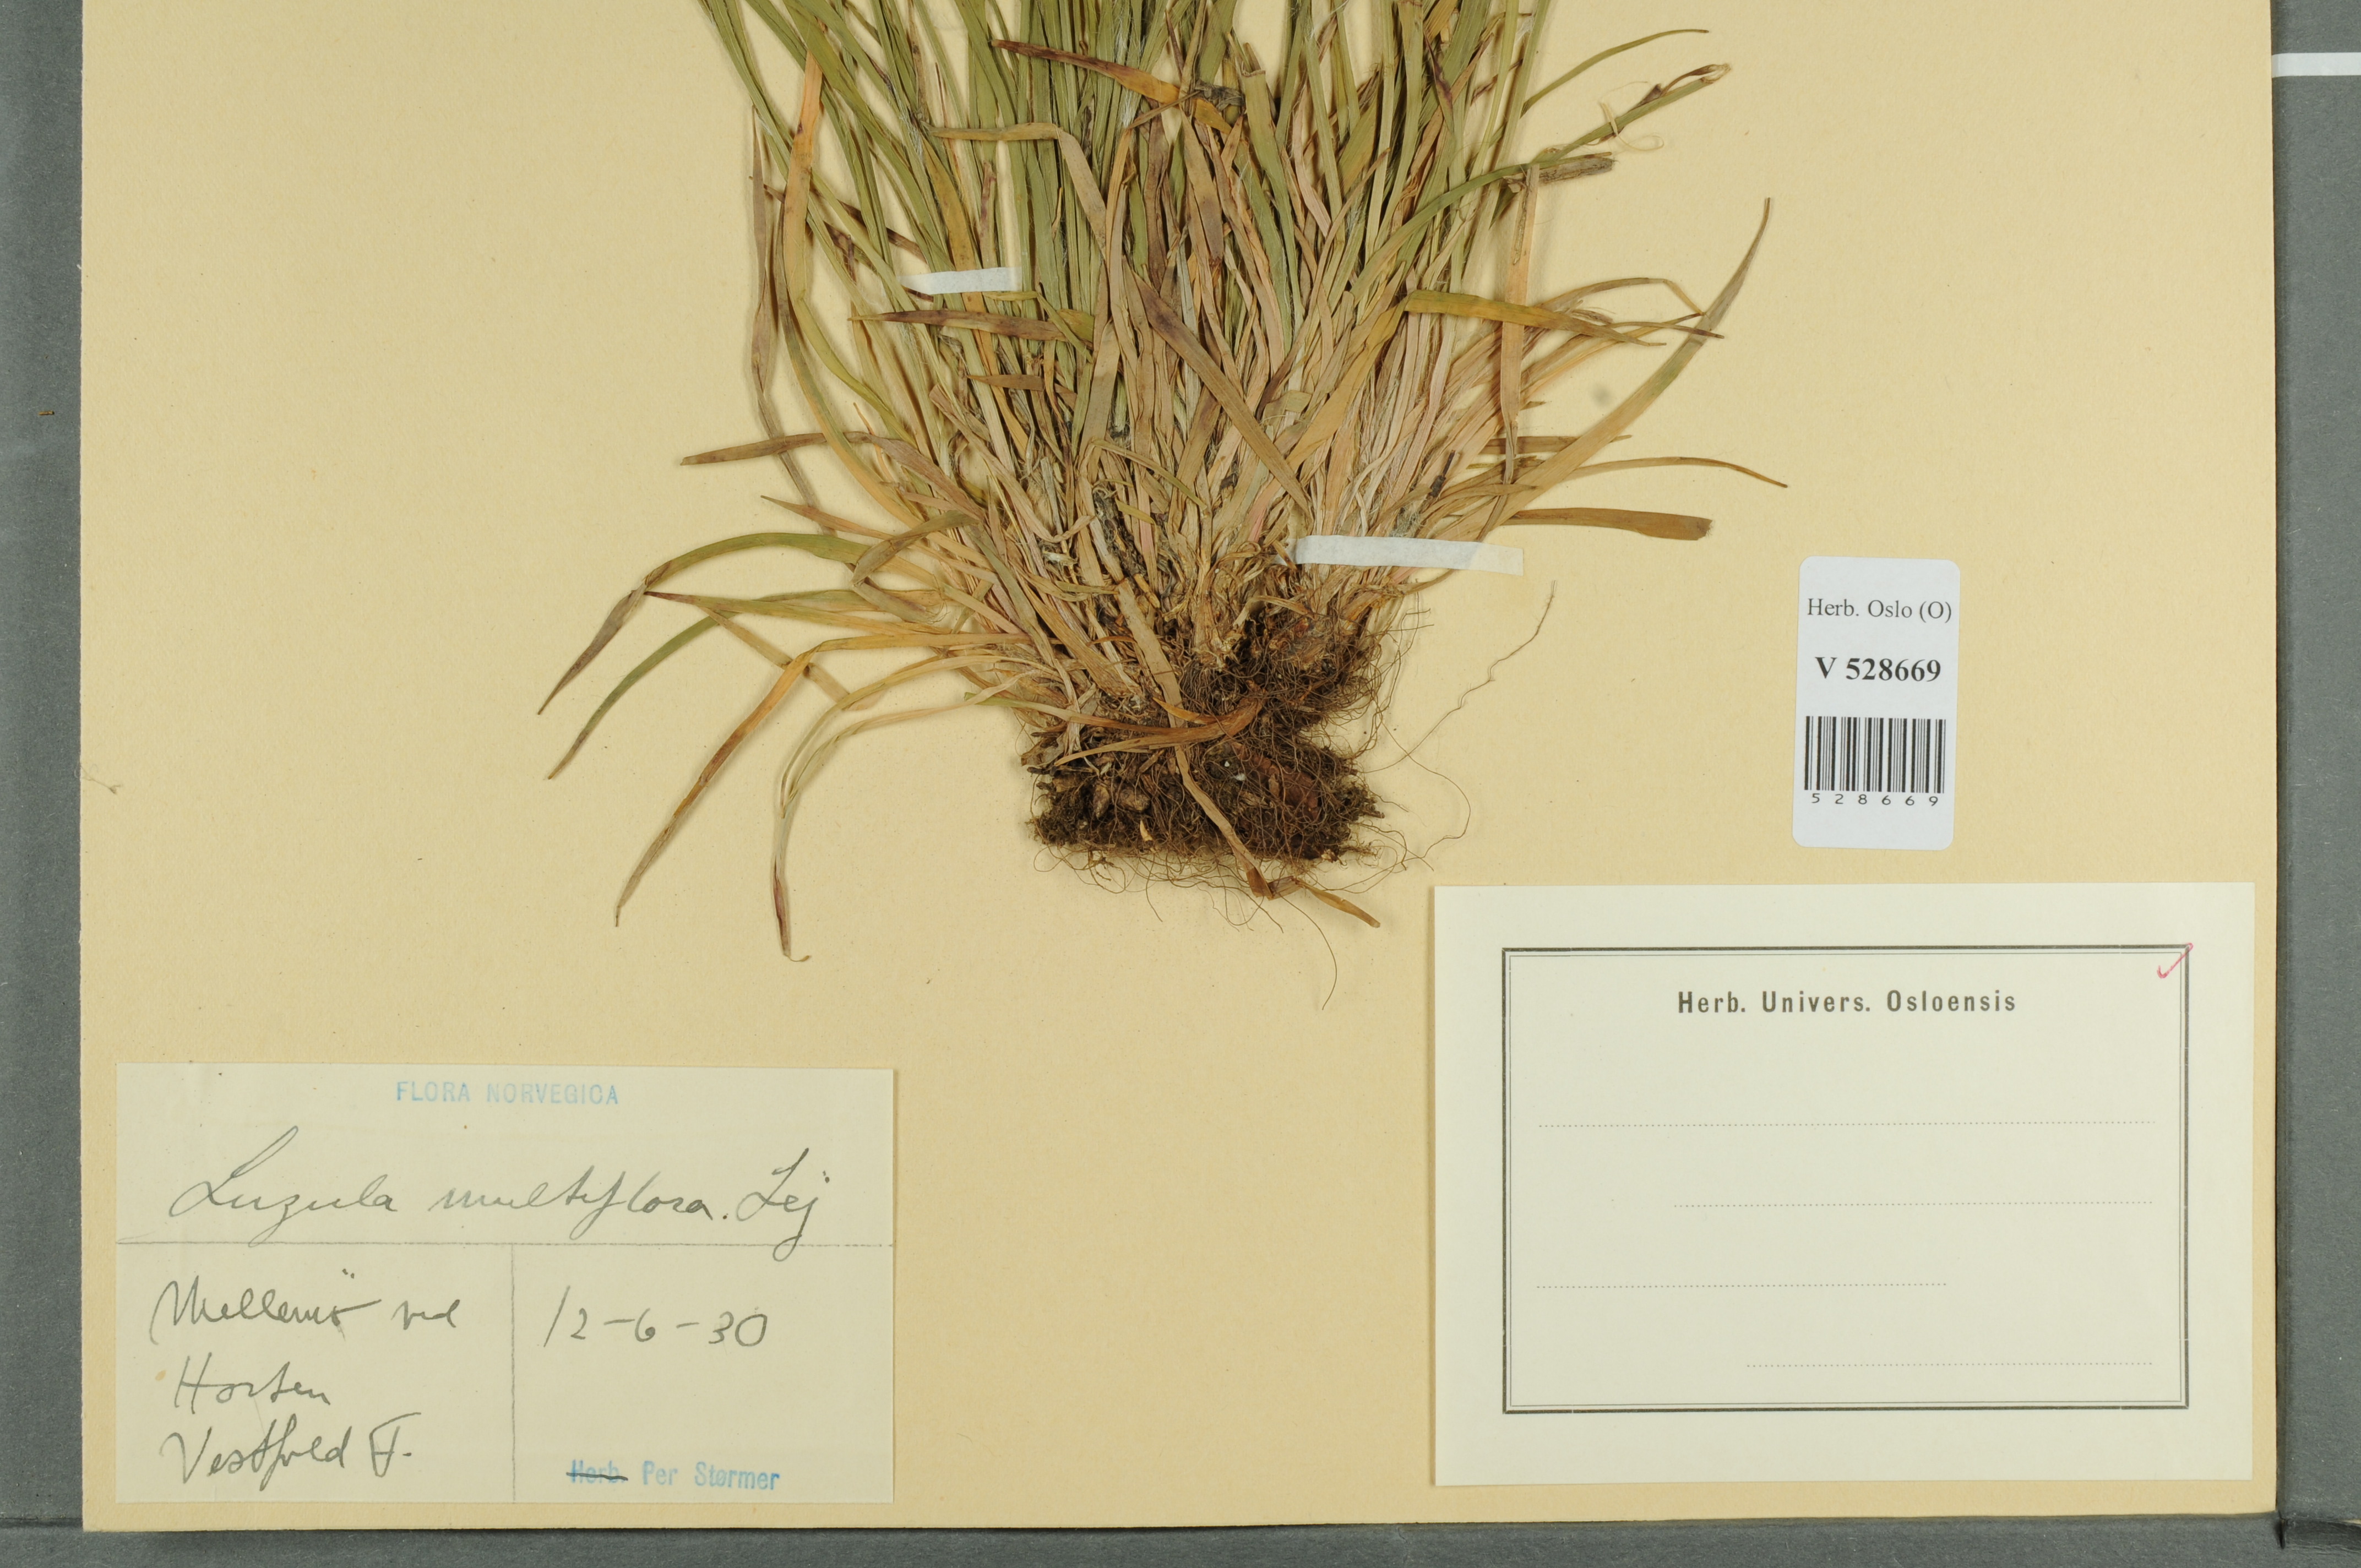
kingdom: Plantae
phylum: Tracheophyta
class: Liliopsida
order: Poales
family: Juncaceae
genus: Luzula
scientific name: Luzula multiflora
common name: Heath wood-rush
